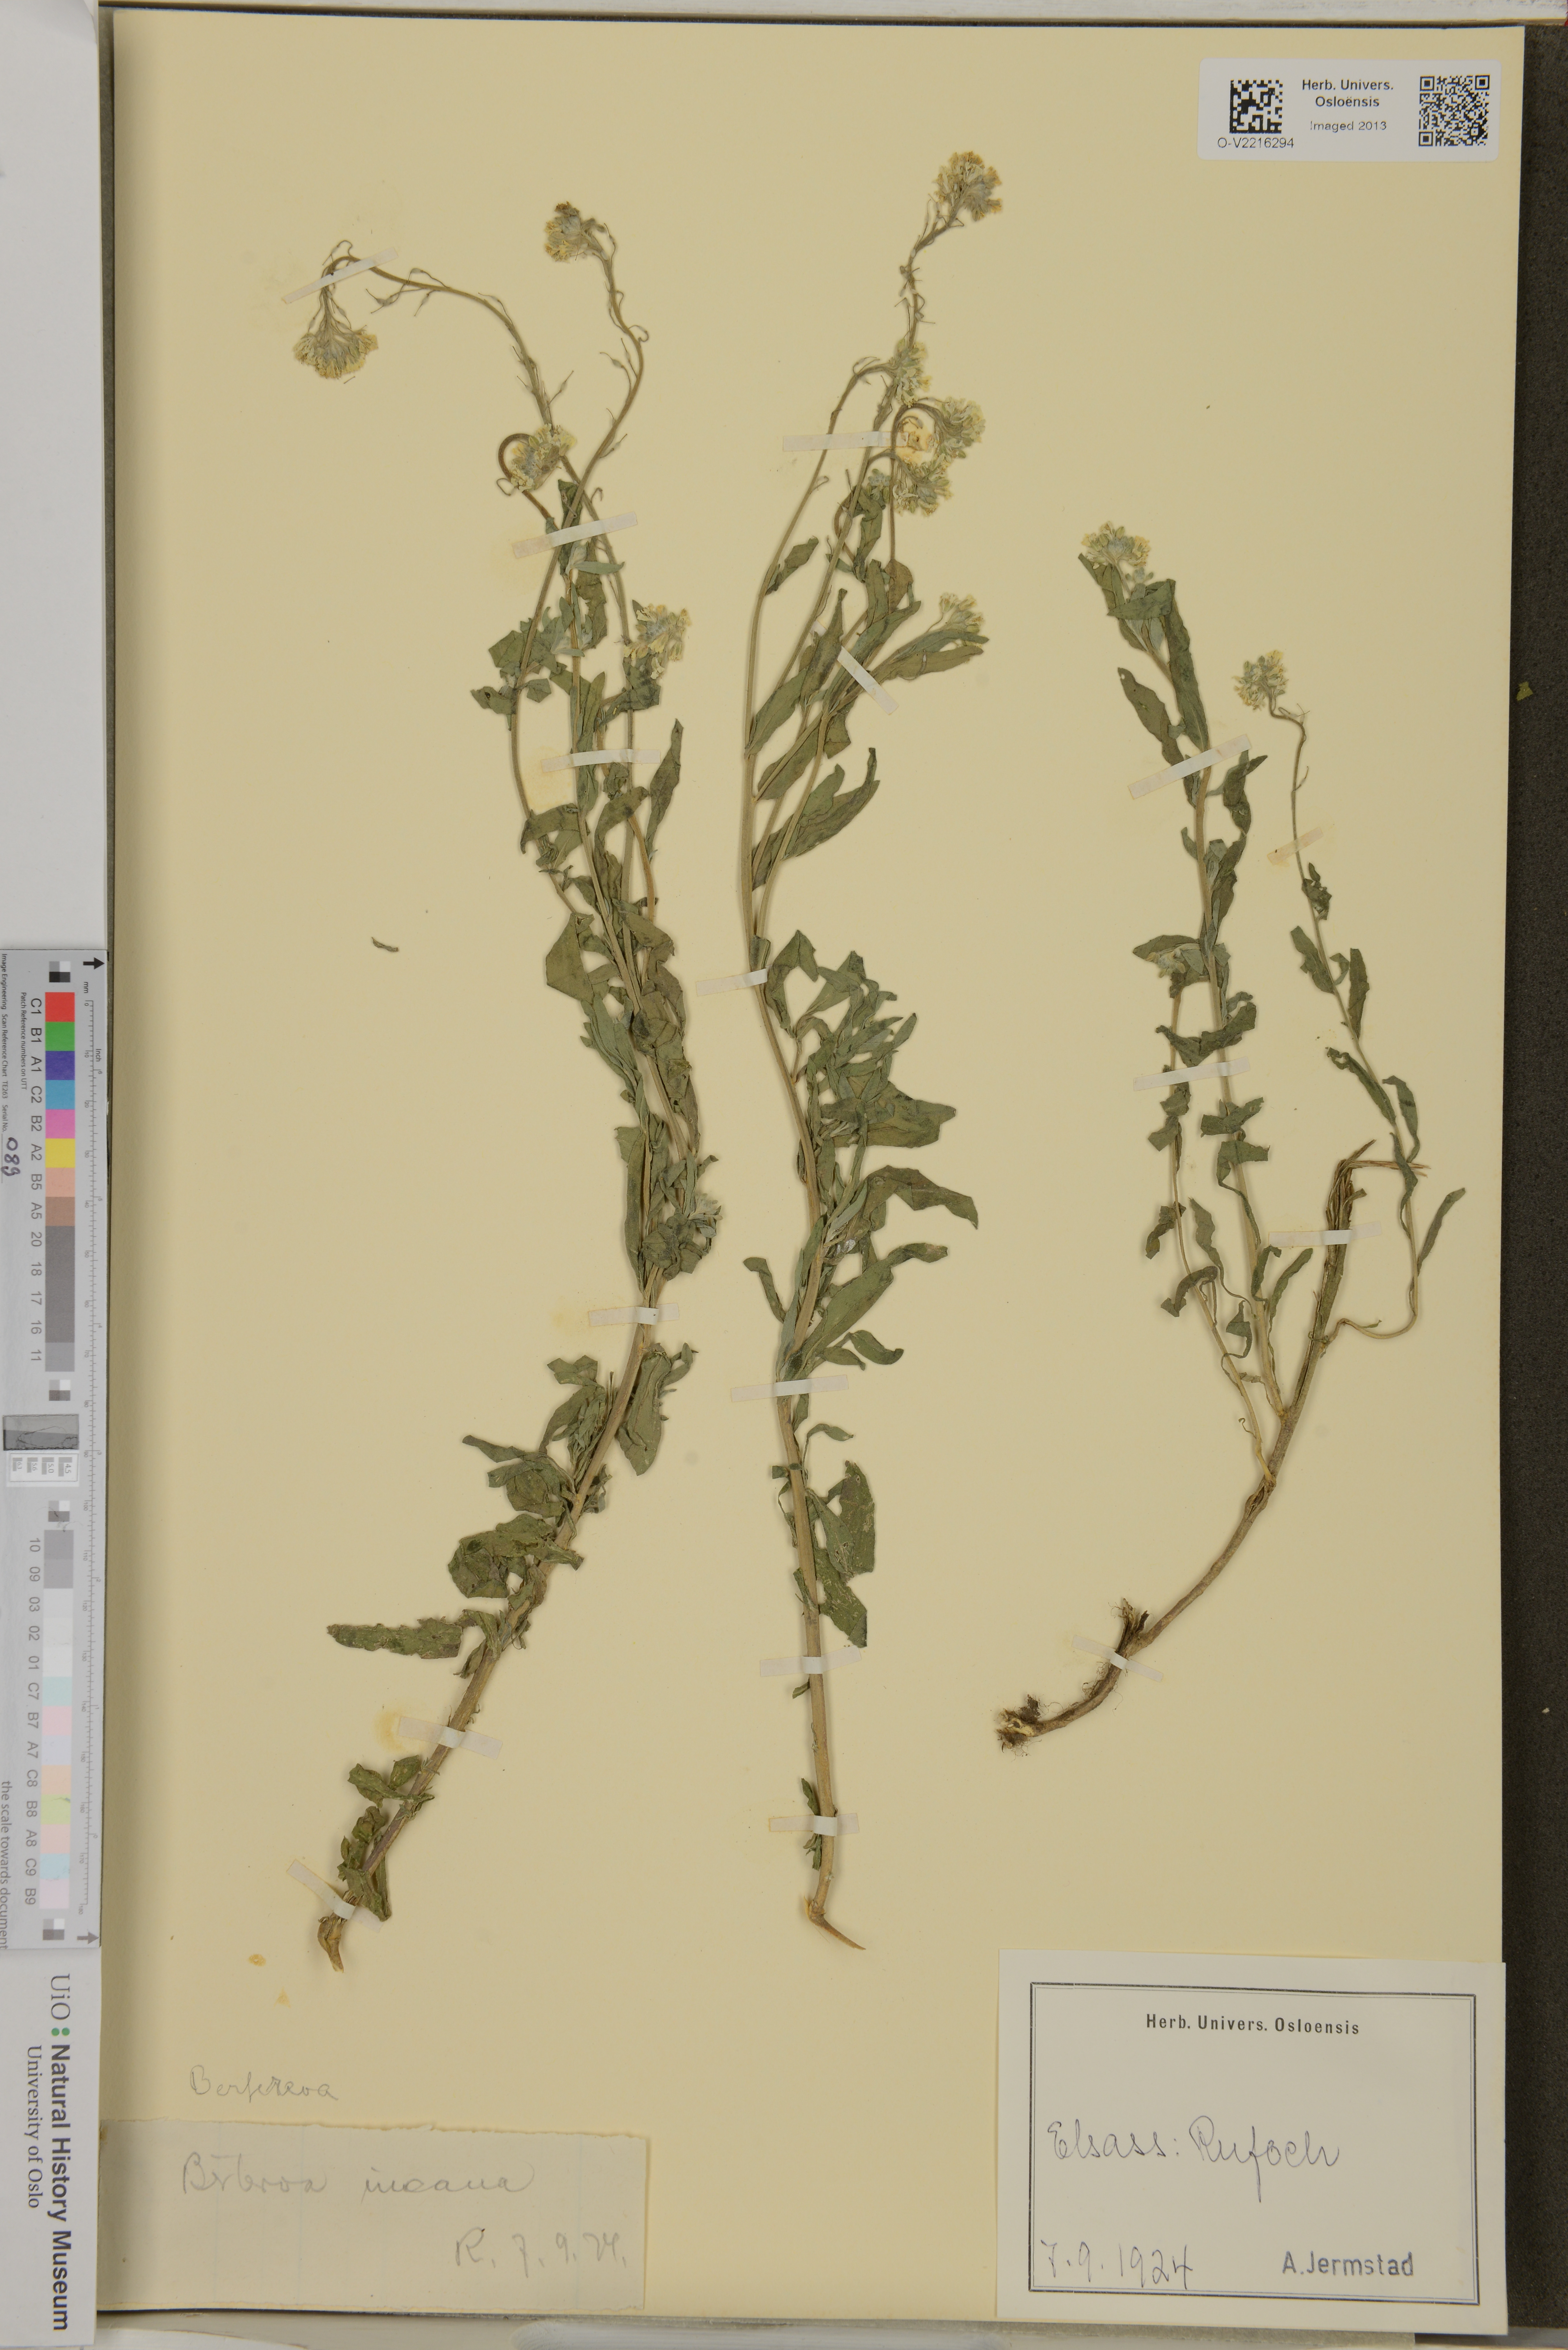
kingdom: Plantae
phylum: Tracheophyta
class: Magnoliopsida
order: Brassicales
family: Brassicaceae
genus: Berteroa
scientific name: Berteroa incana
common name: Hoary alison
